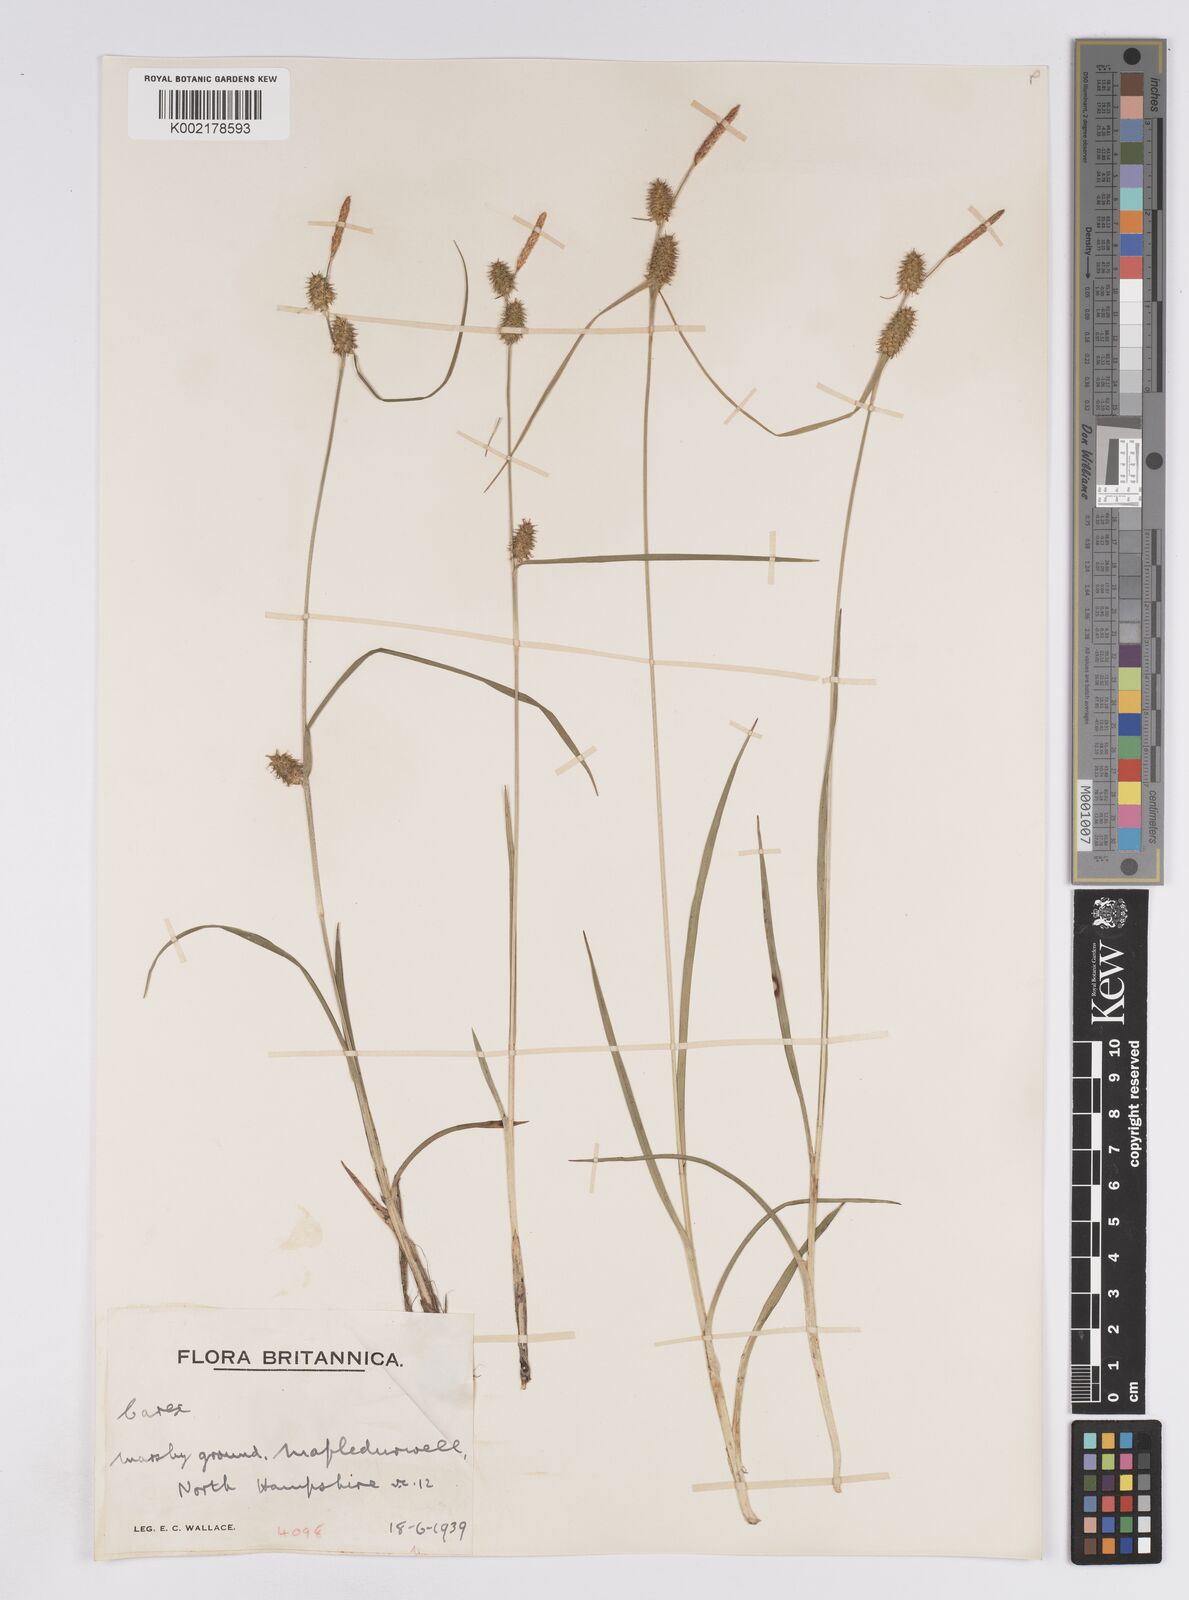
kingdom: Plantae
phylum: Tracheophyta
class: Liliopsida
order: Poales
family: Cyperaceae
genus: Carex
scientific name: Carex lepidocarpa
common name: Long-stalked yellow-sedge
